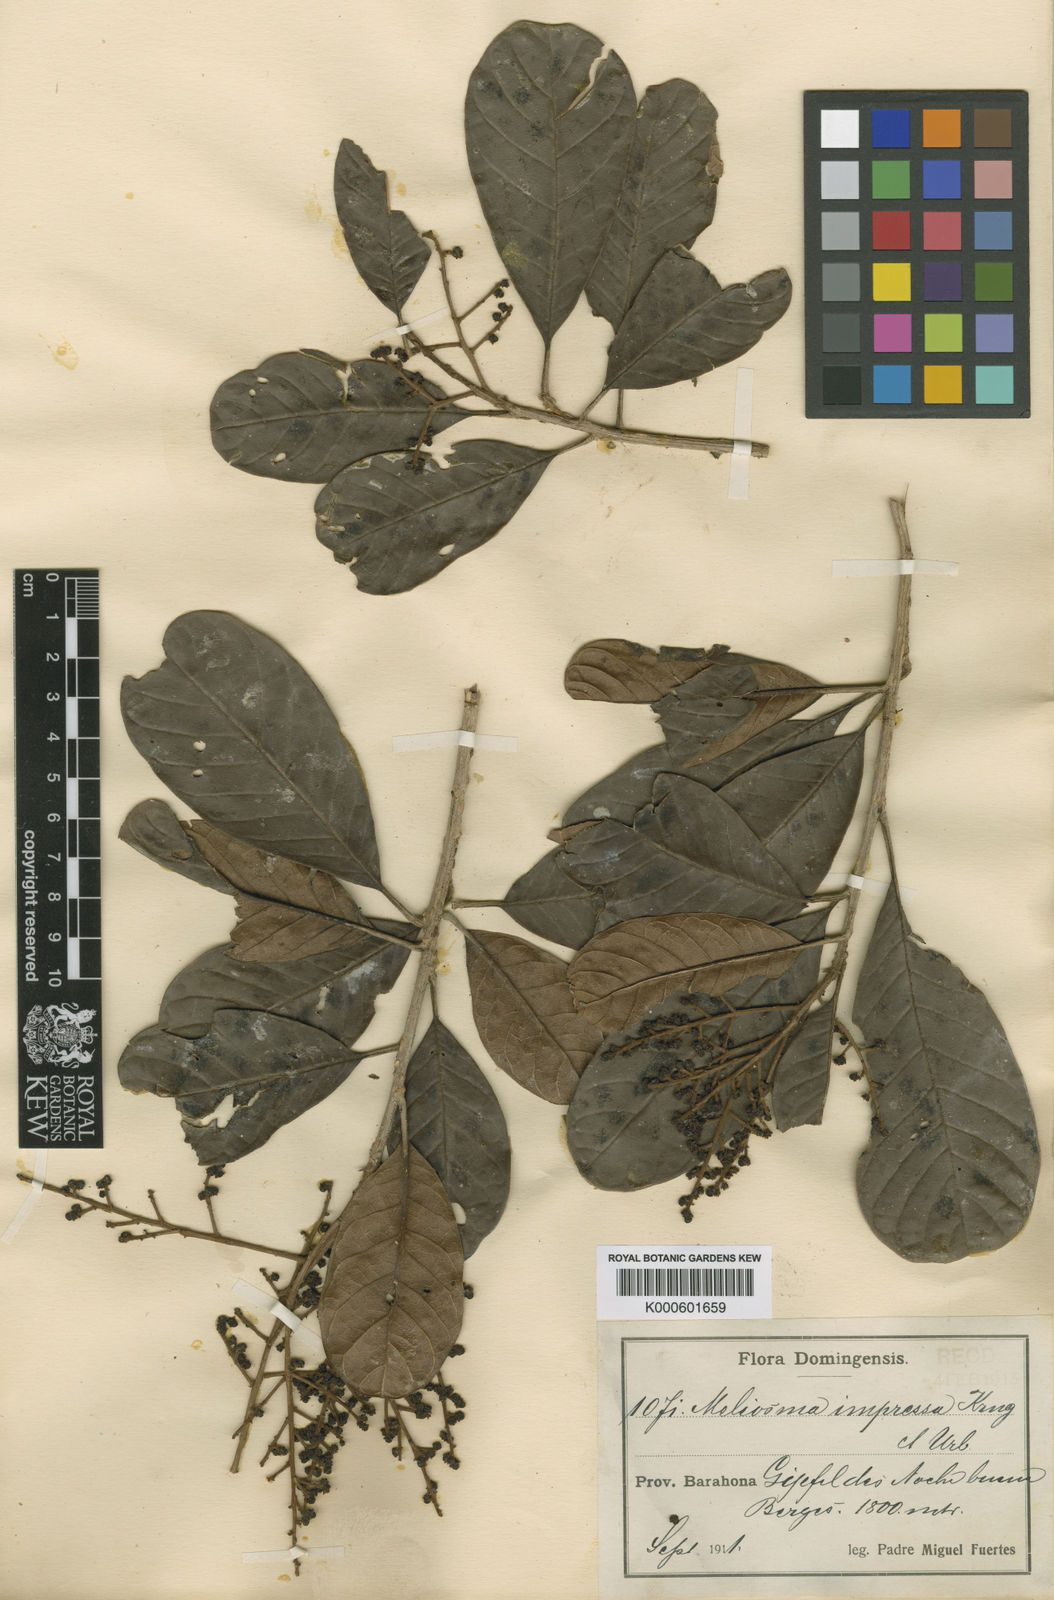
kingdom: Plantae
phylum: Tracheophyta
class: Magnoliopsida
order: Proteales
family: Sabiaceae
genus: Meliosma
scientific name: Meliosma impressa
